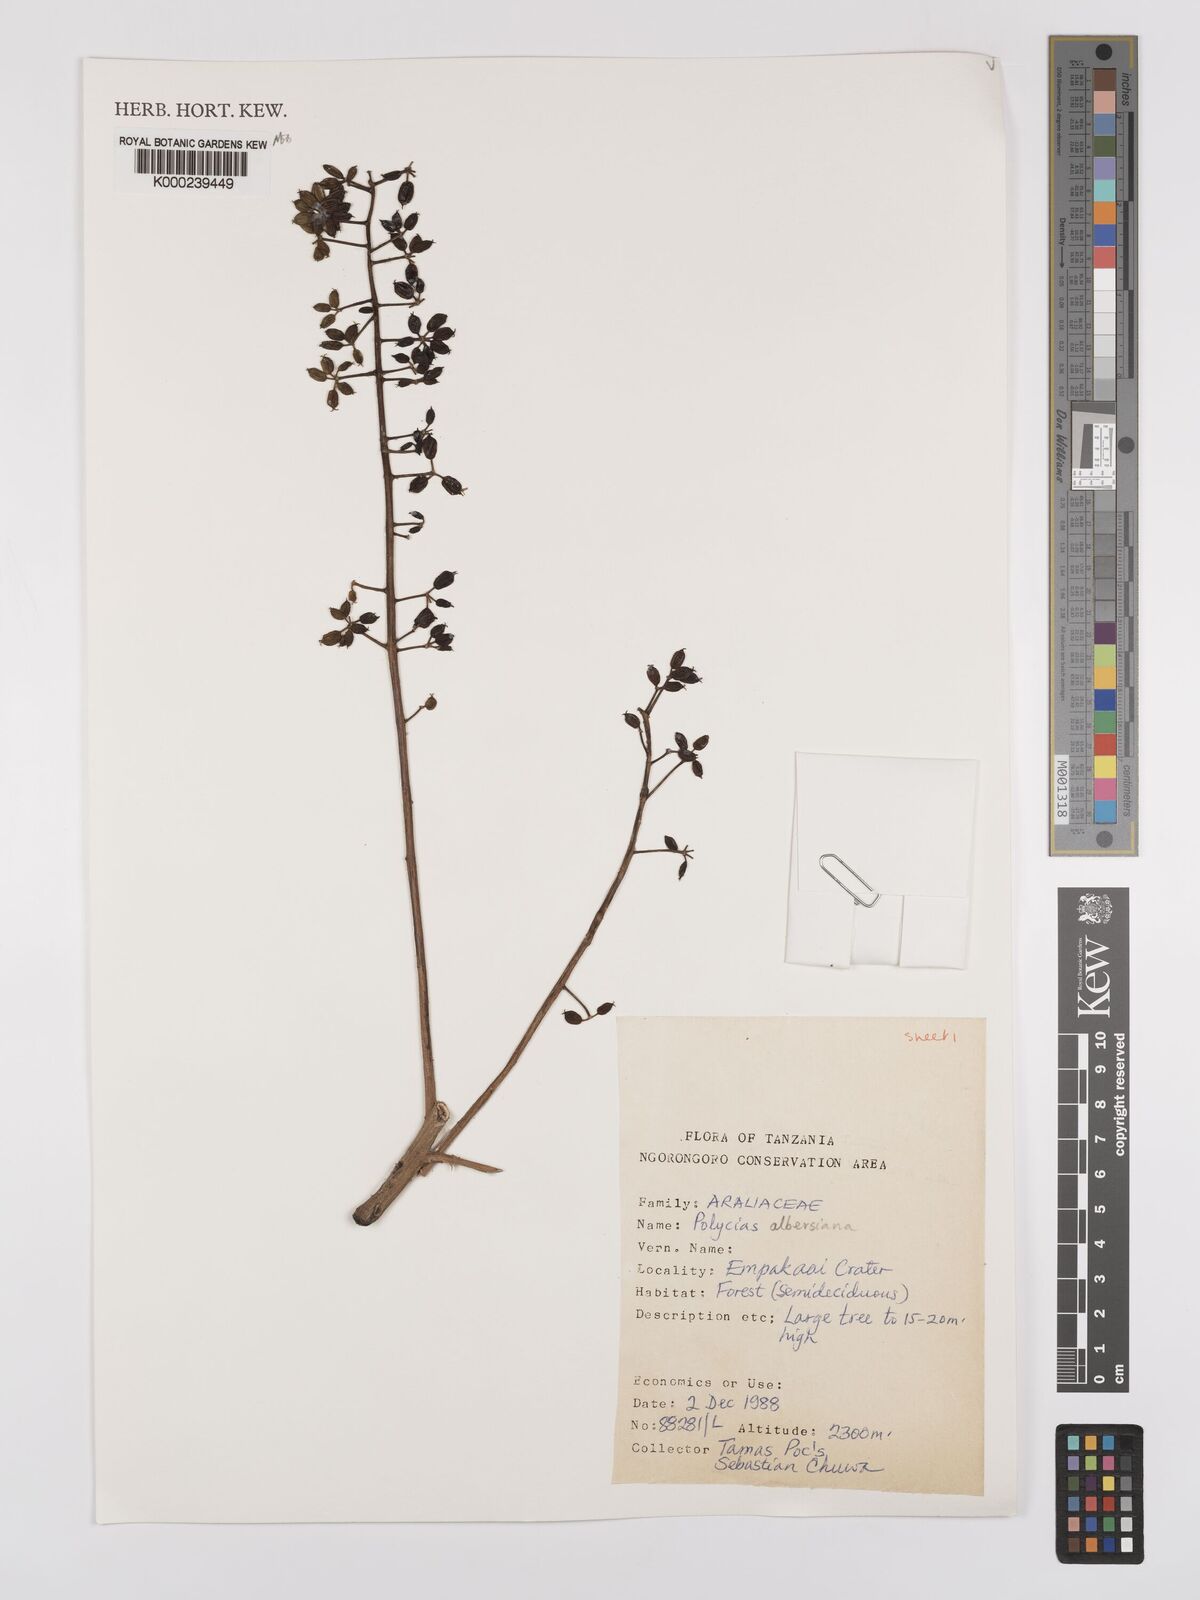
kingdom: Plantae
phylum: Tracheophyta
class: Magnoliopsida
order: Apiales
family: Araliaceae
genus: Polyscias
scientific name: Polyscias albersiana
